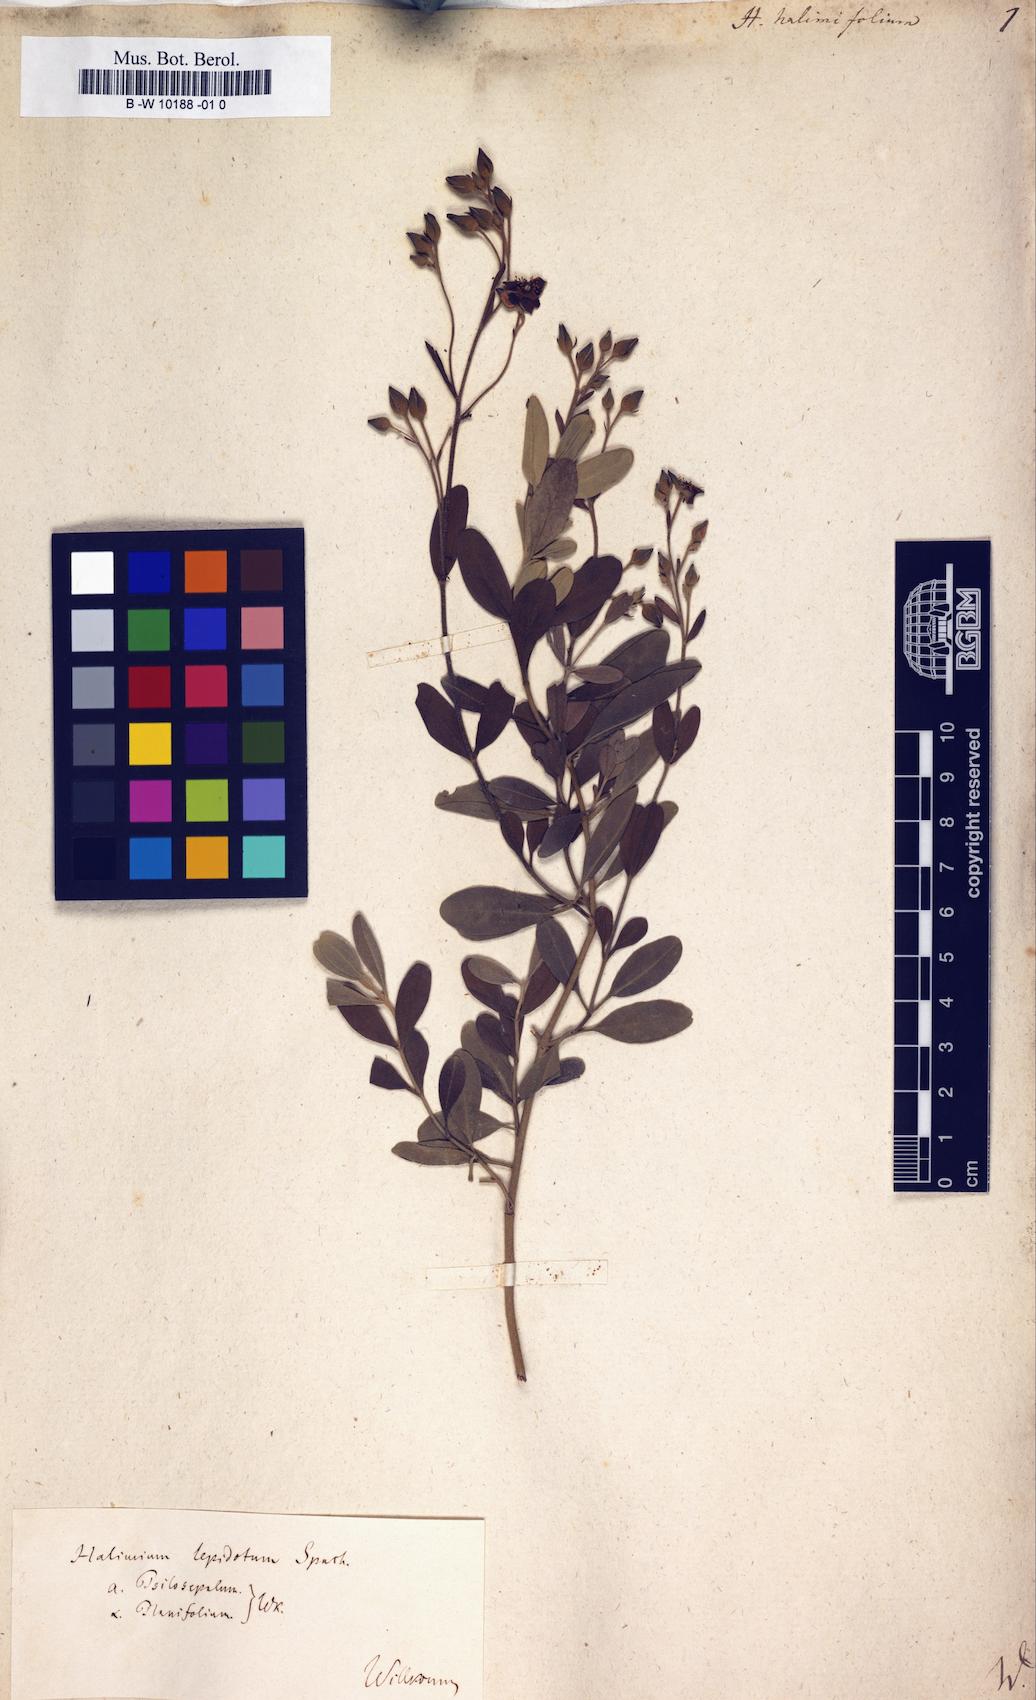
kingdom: Plantae
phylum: Tracheophyta
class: Magnoliopsida
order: Malvales
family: Cistaceae
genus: Halimium
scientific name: Halimium halimifolium
